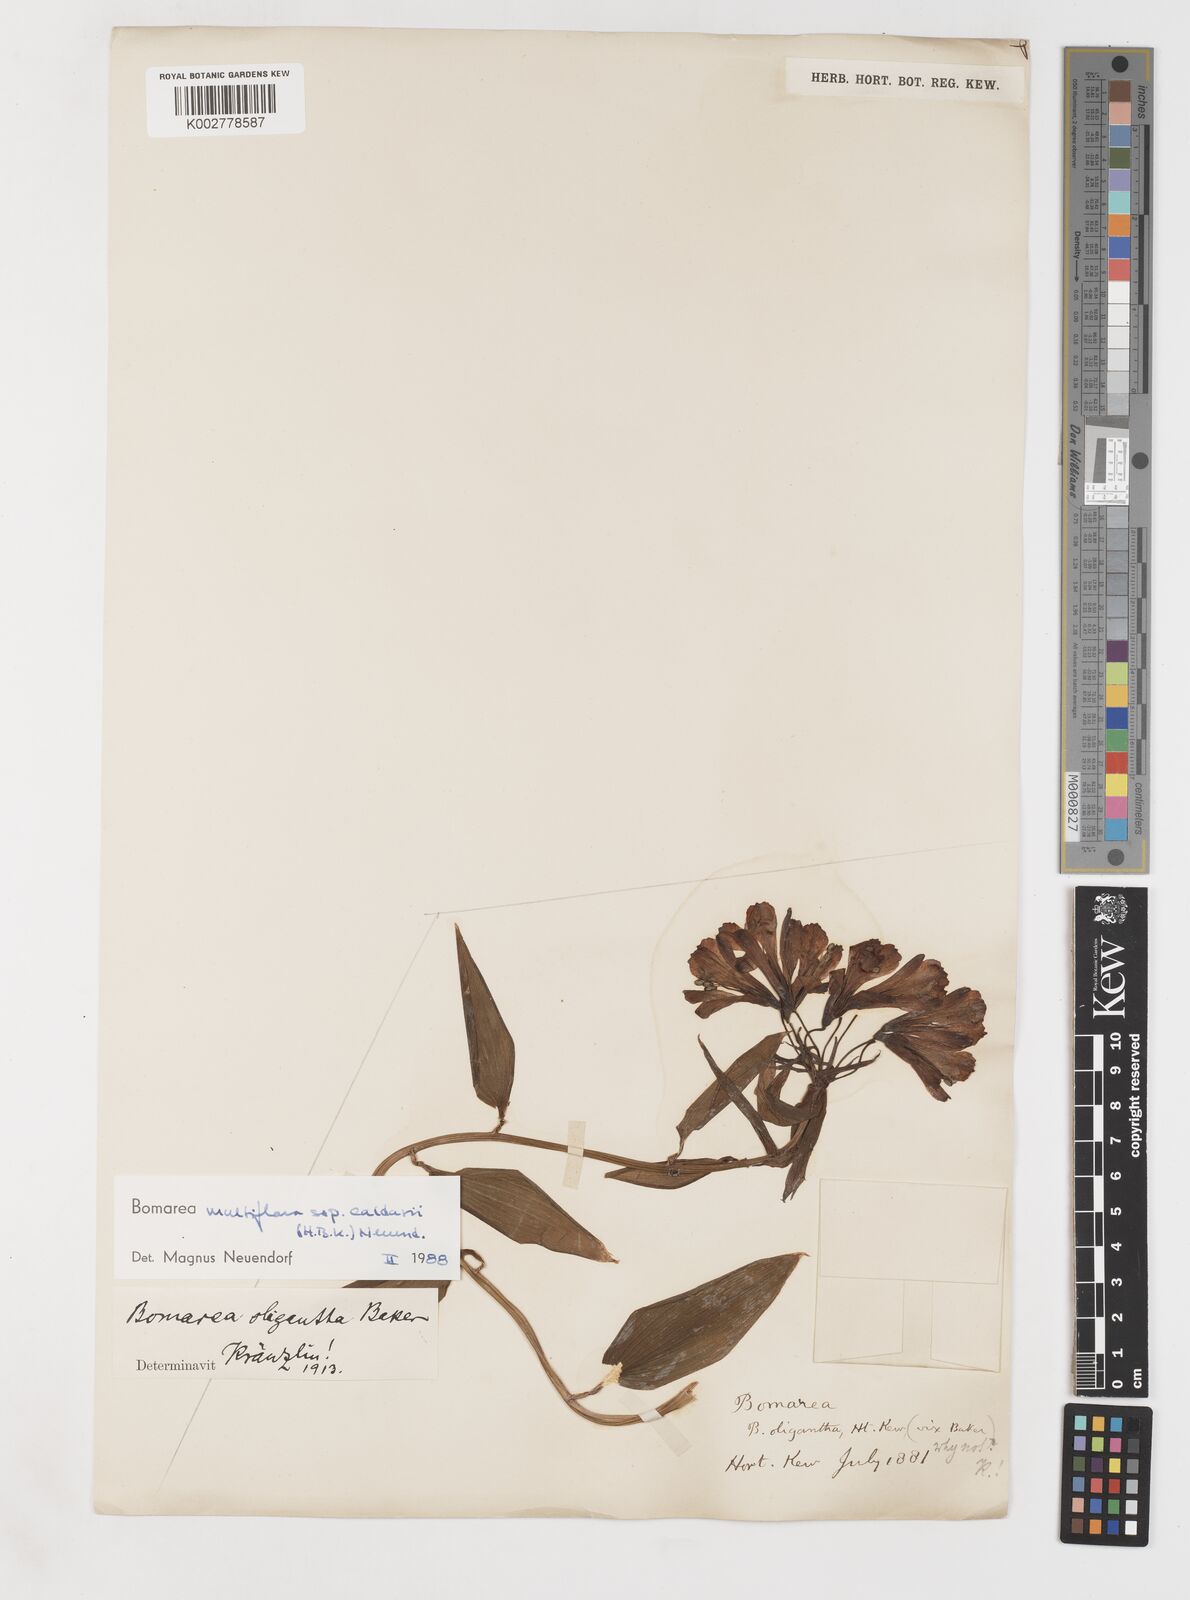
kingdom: Plantae
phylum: Tracheophyta
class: Liliopsida
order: Liliales
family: Alstroemeriaceae
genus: Bomarea
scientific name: Bomarea multiflora
